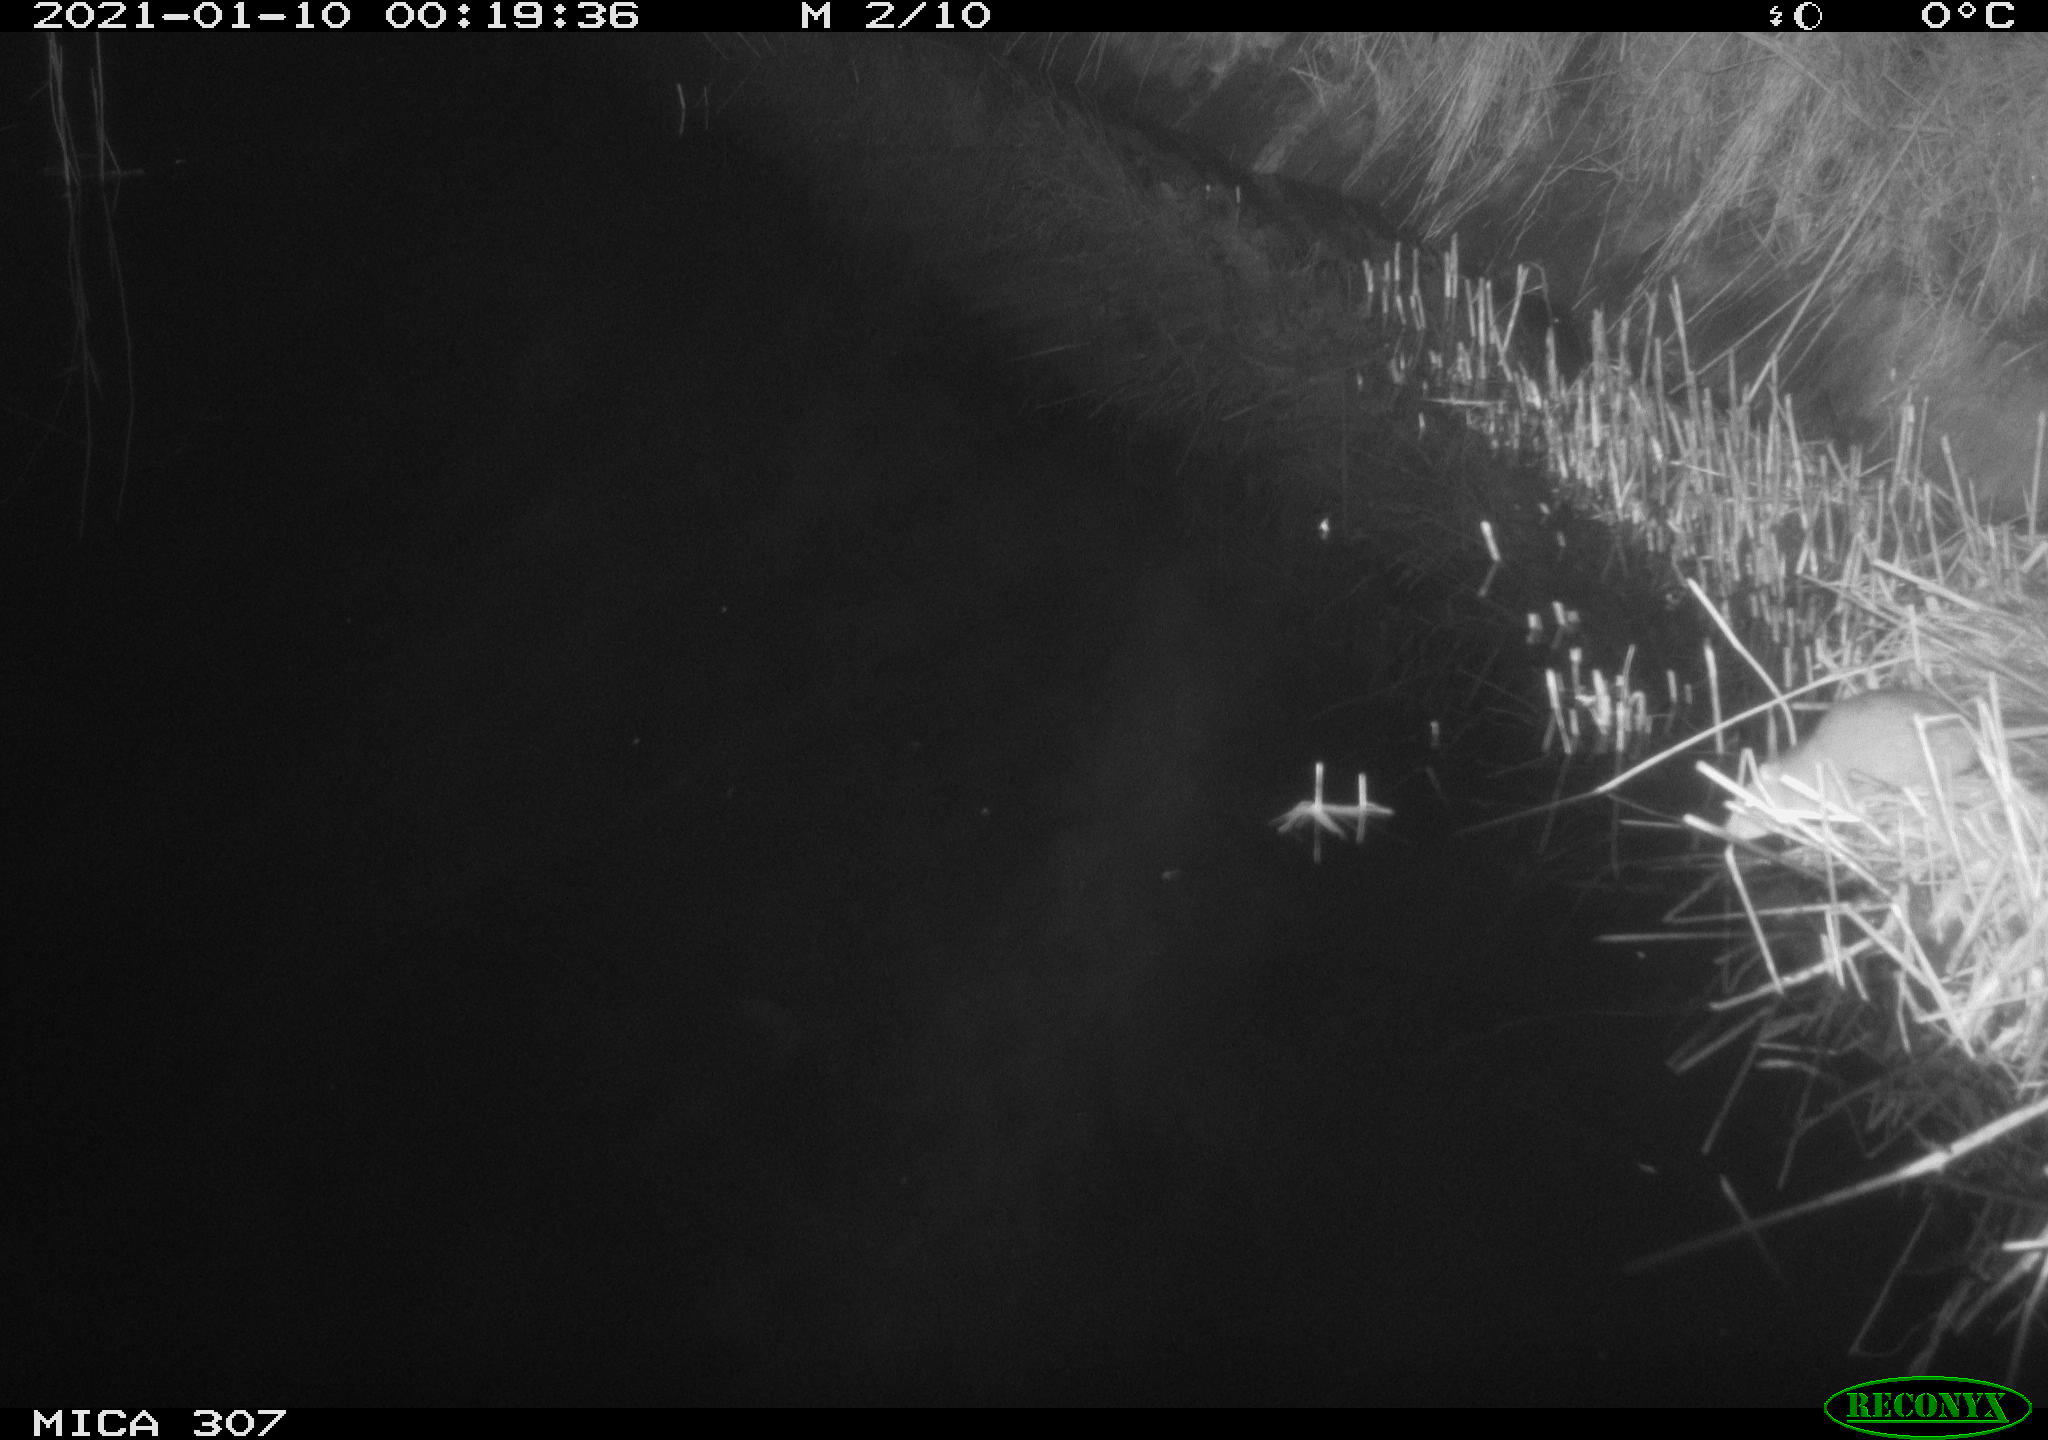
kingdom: Animalia
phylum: Chordata
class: Mammalia
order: Rodentia
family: Muridae
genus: Rattus
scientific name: Rattus norvegicus
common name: Brown rat
